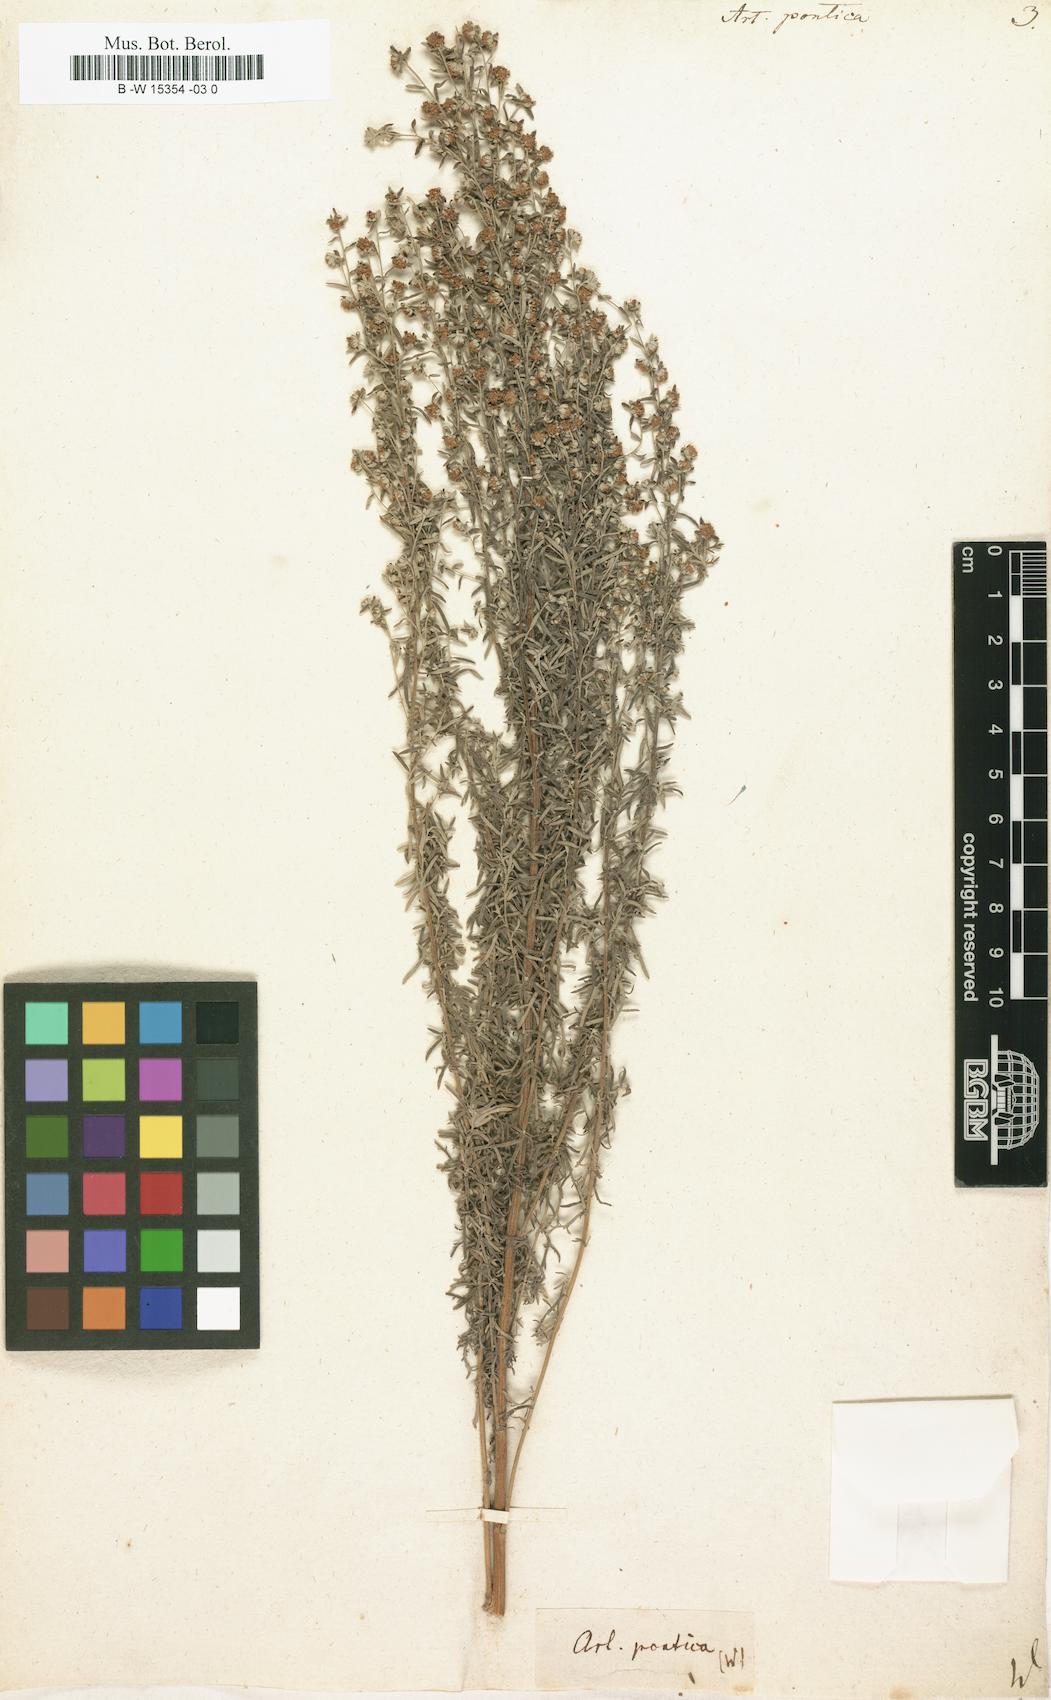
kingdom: Plantae
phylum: Tracheophyta
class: Magnoliopsida
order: Asterales
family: Asteraceae
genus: Artemisia
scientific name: Artemisia pontica
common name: Roman wormwood
